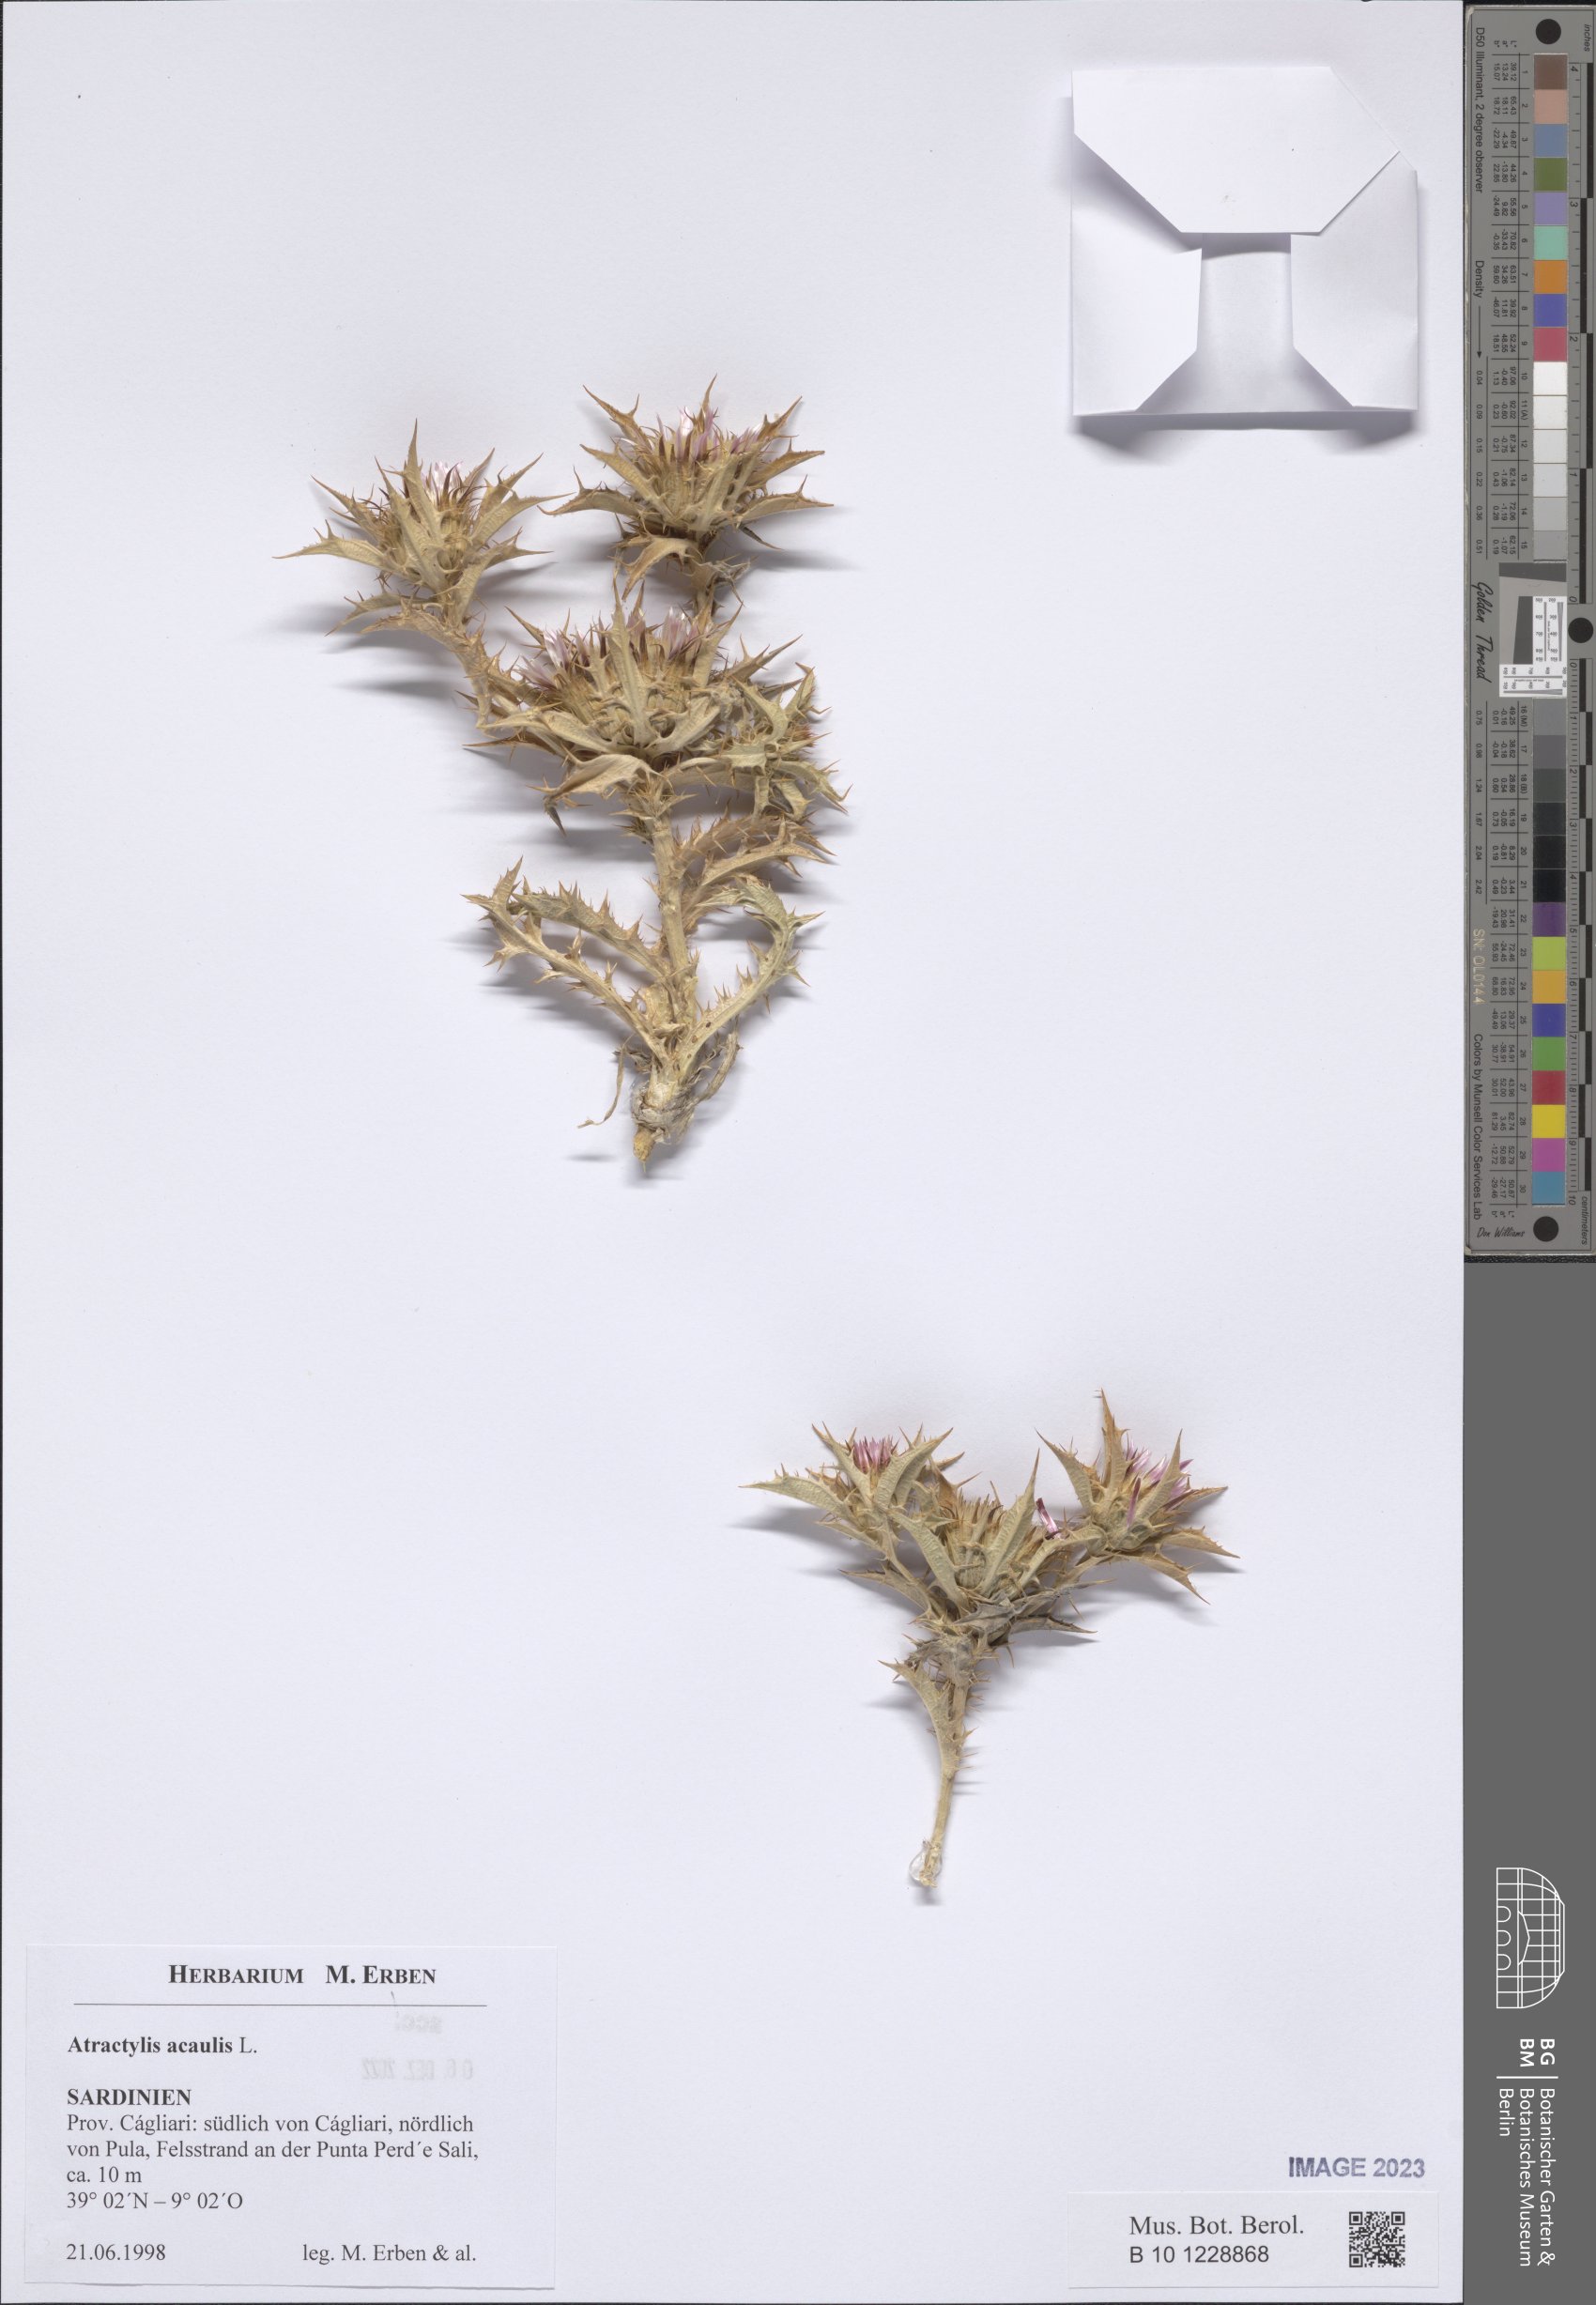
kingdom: Plantae
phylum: Tracheophyta
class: Magnoliopsida
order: Asterales
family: Asteraceae
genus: Chamaeleon
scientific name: Chamaeleon gummifer
